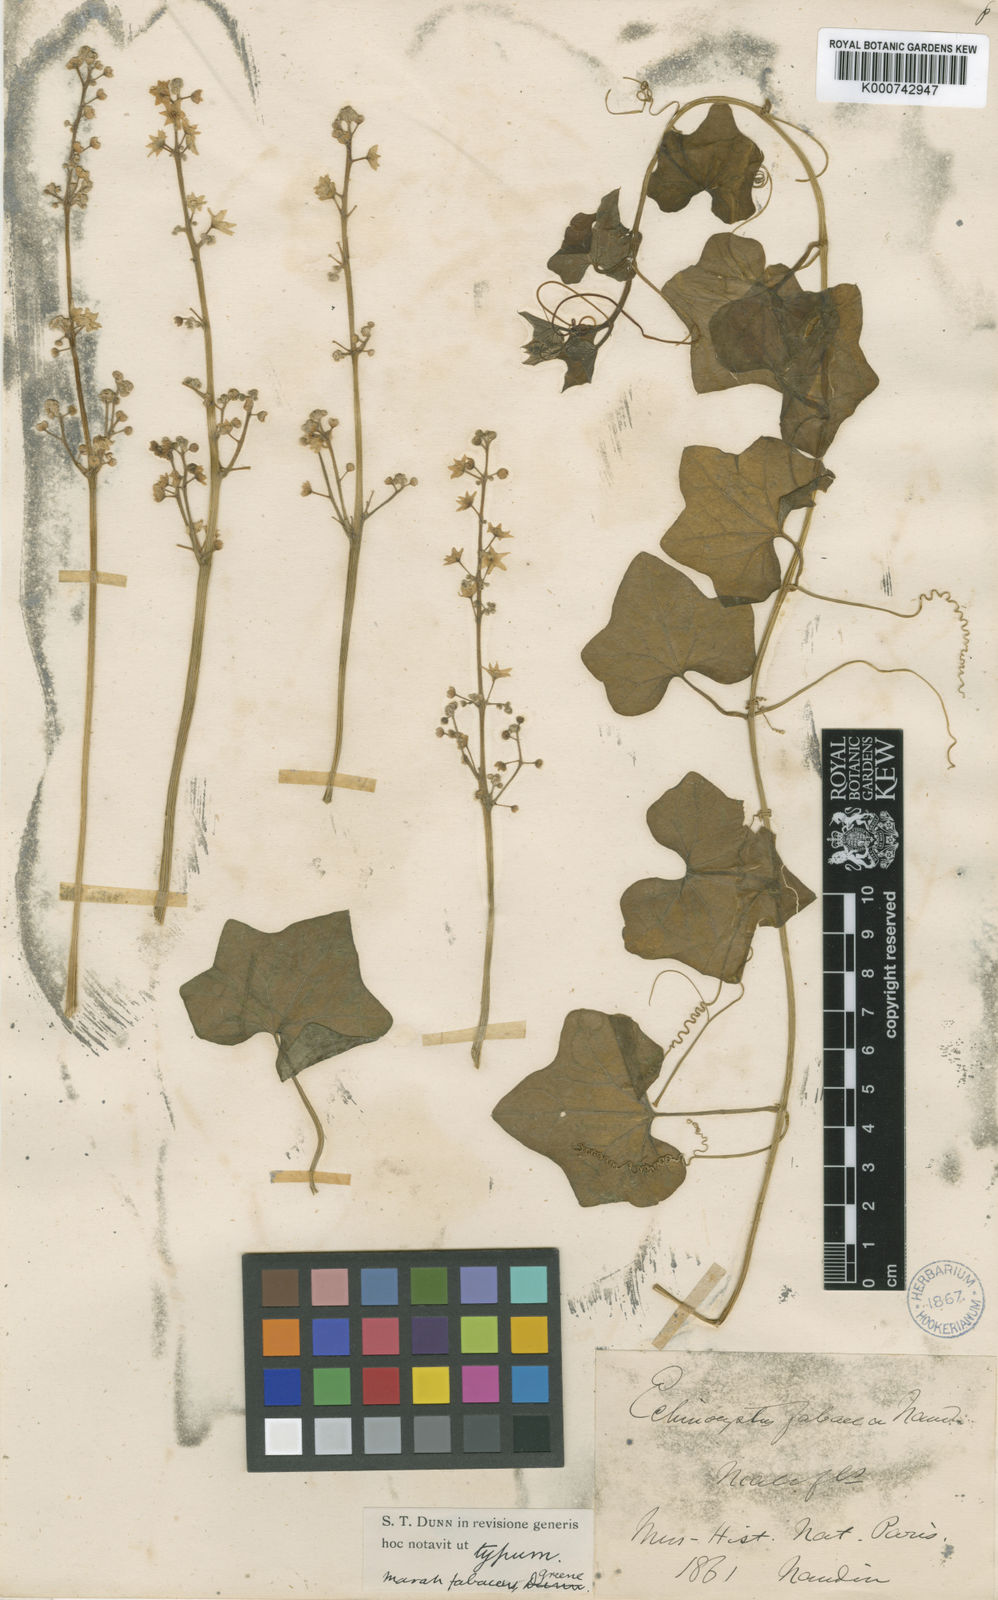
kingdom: Plantae
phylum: Tracheophyta
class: Magnoliopsida
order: Cucurbitales
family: Cucurbitaceae
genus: Marah
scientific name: Marah
